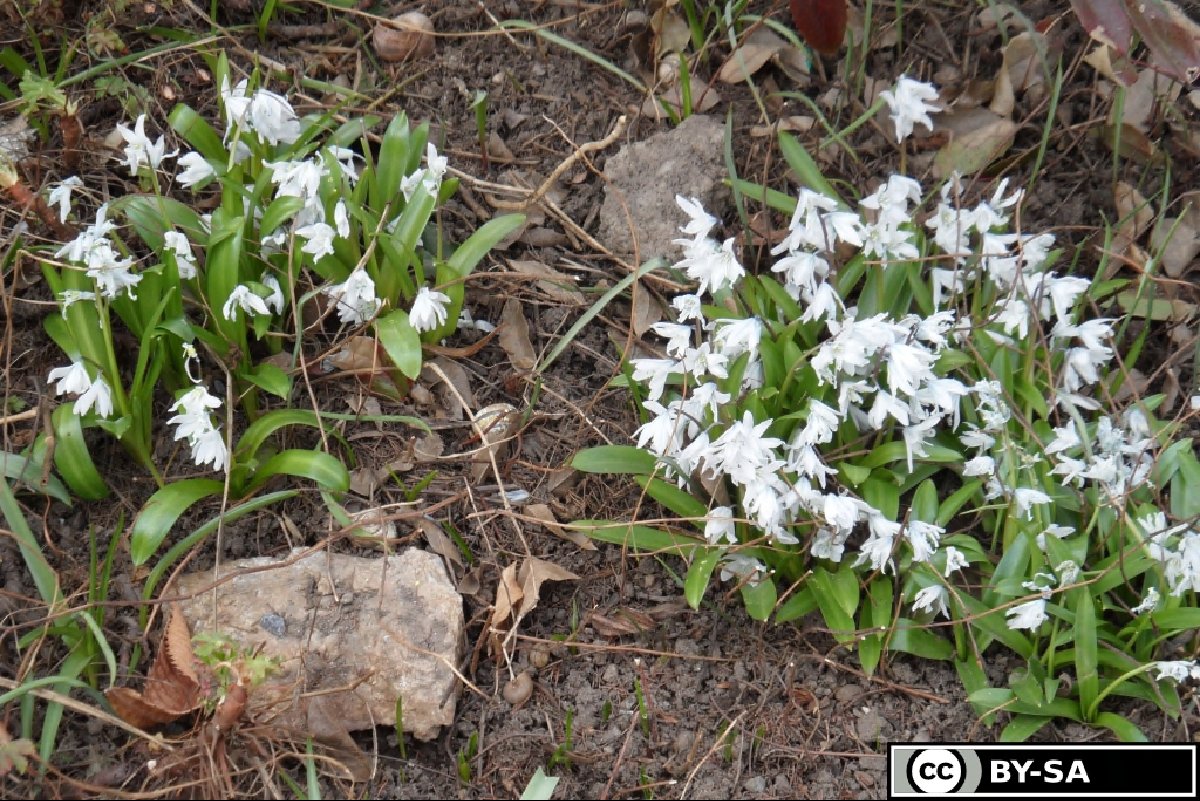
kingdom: Plantae
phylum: Tracheophyta
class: Liliopsida
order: Asparagales
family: Asparagaceae
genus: Scilla
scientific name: Scilla mischtschenkoana
